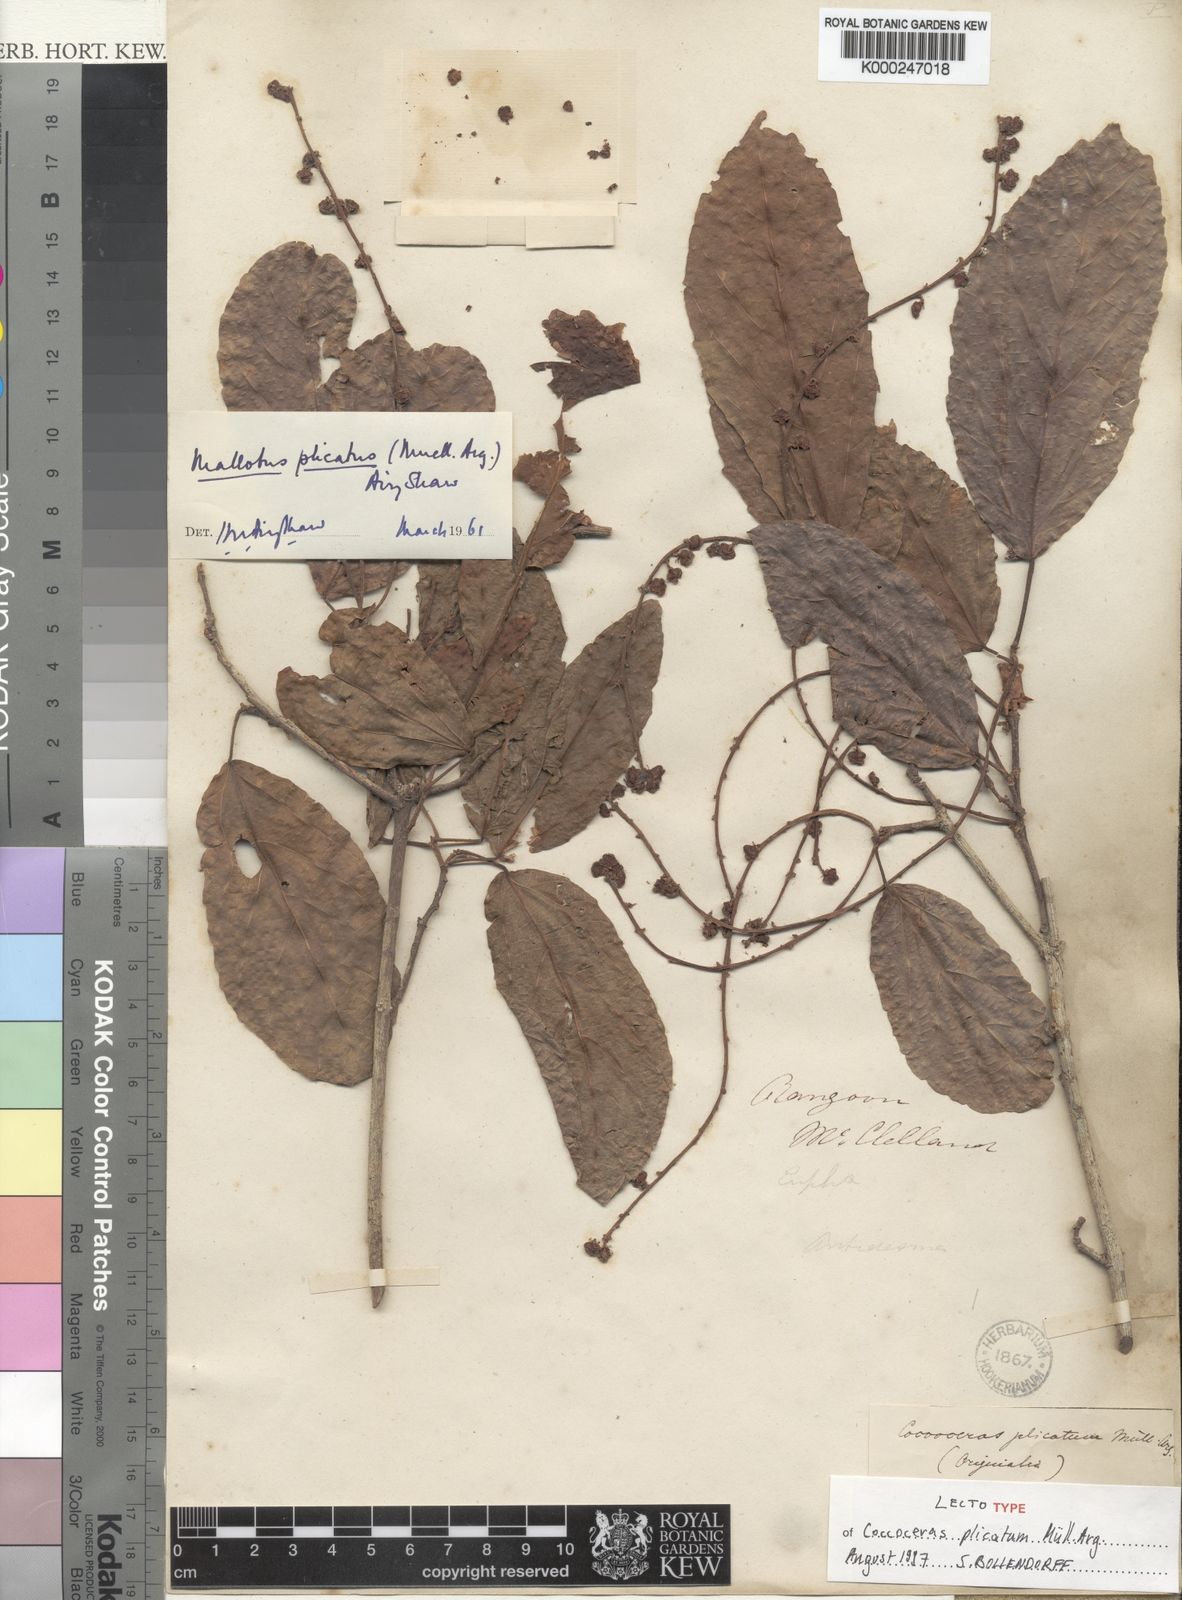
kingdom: Plantae
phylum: Tracheophyta
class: Magnoliopsida
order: Malpighiales
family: Euphorbiaceae
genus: Mallotus
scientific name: Mallotus
